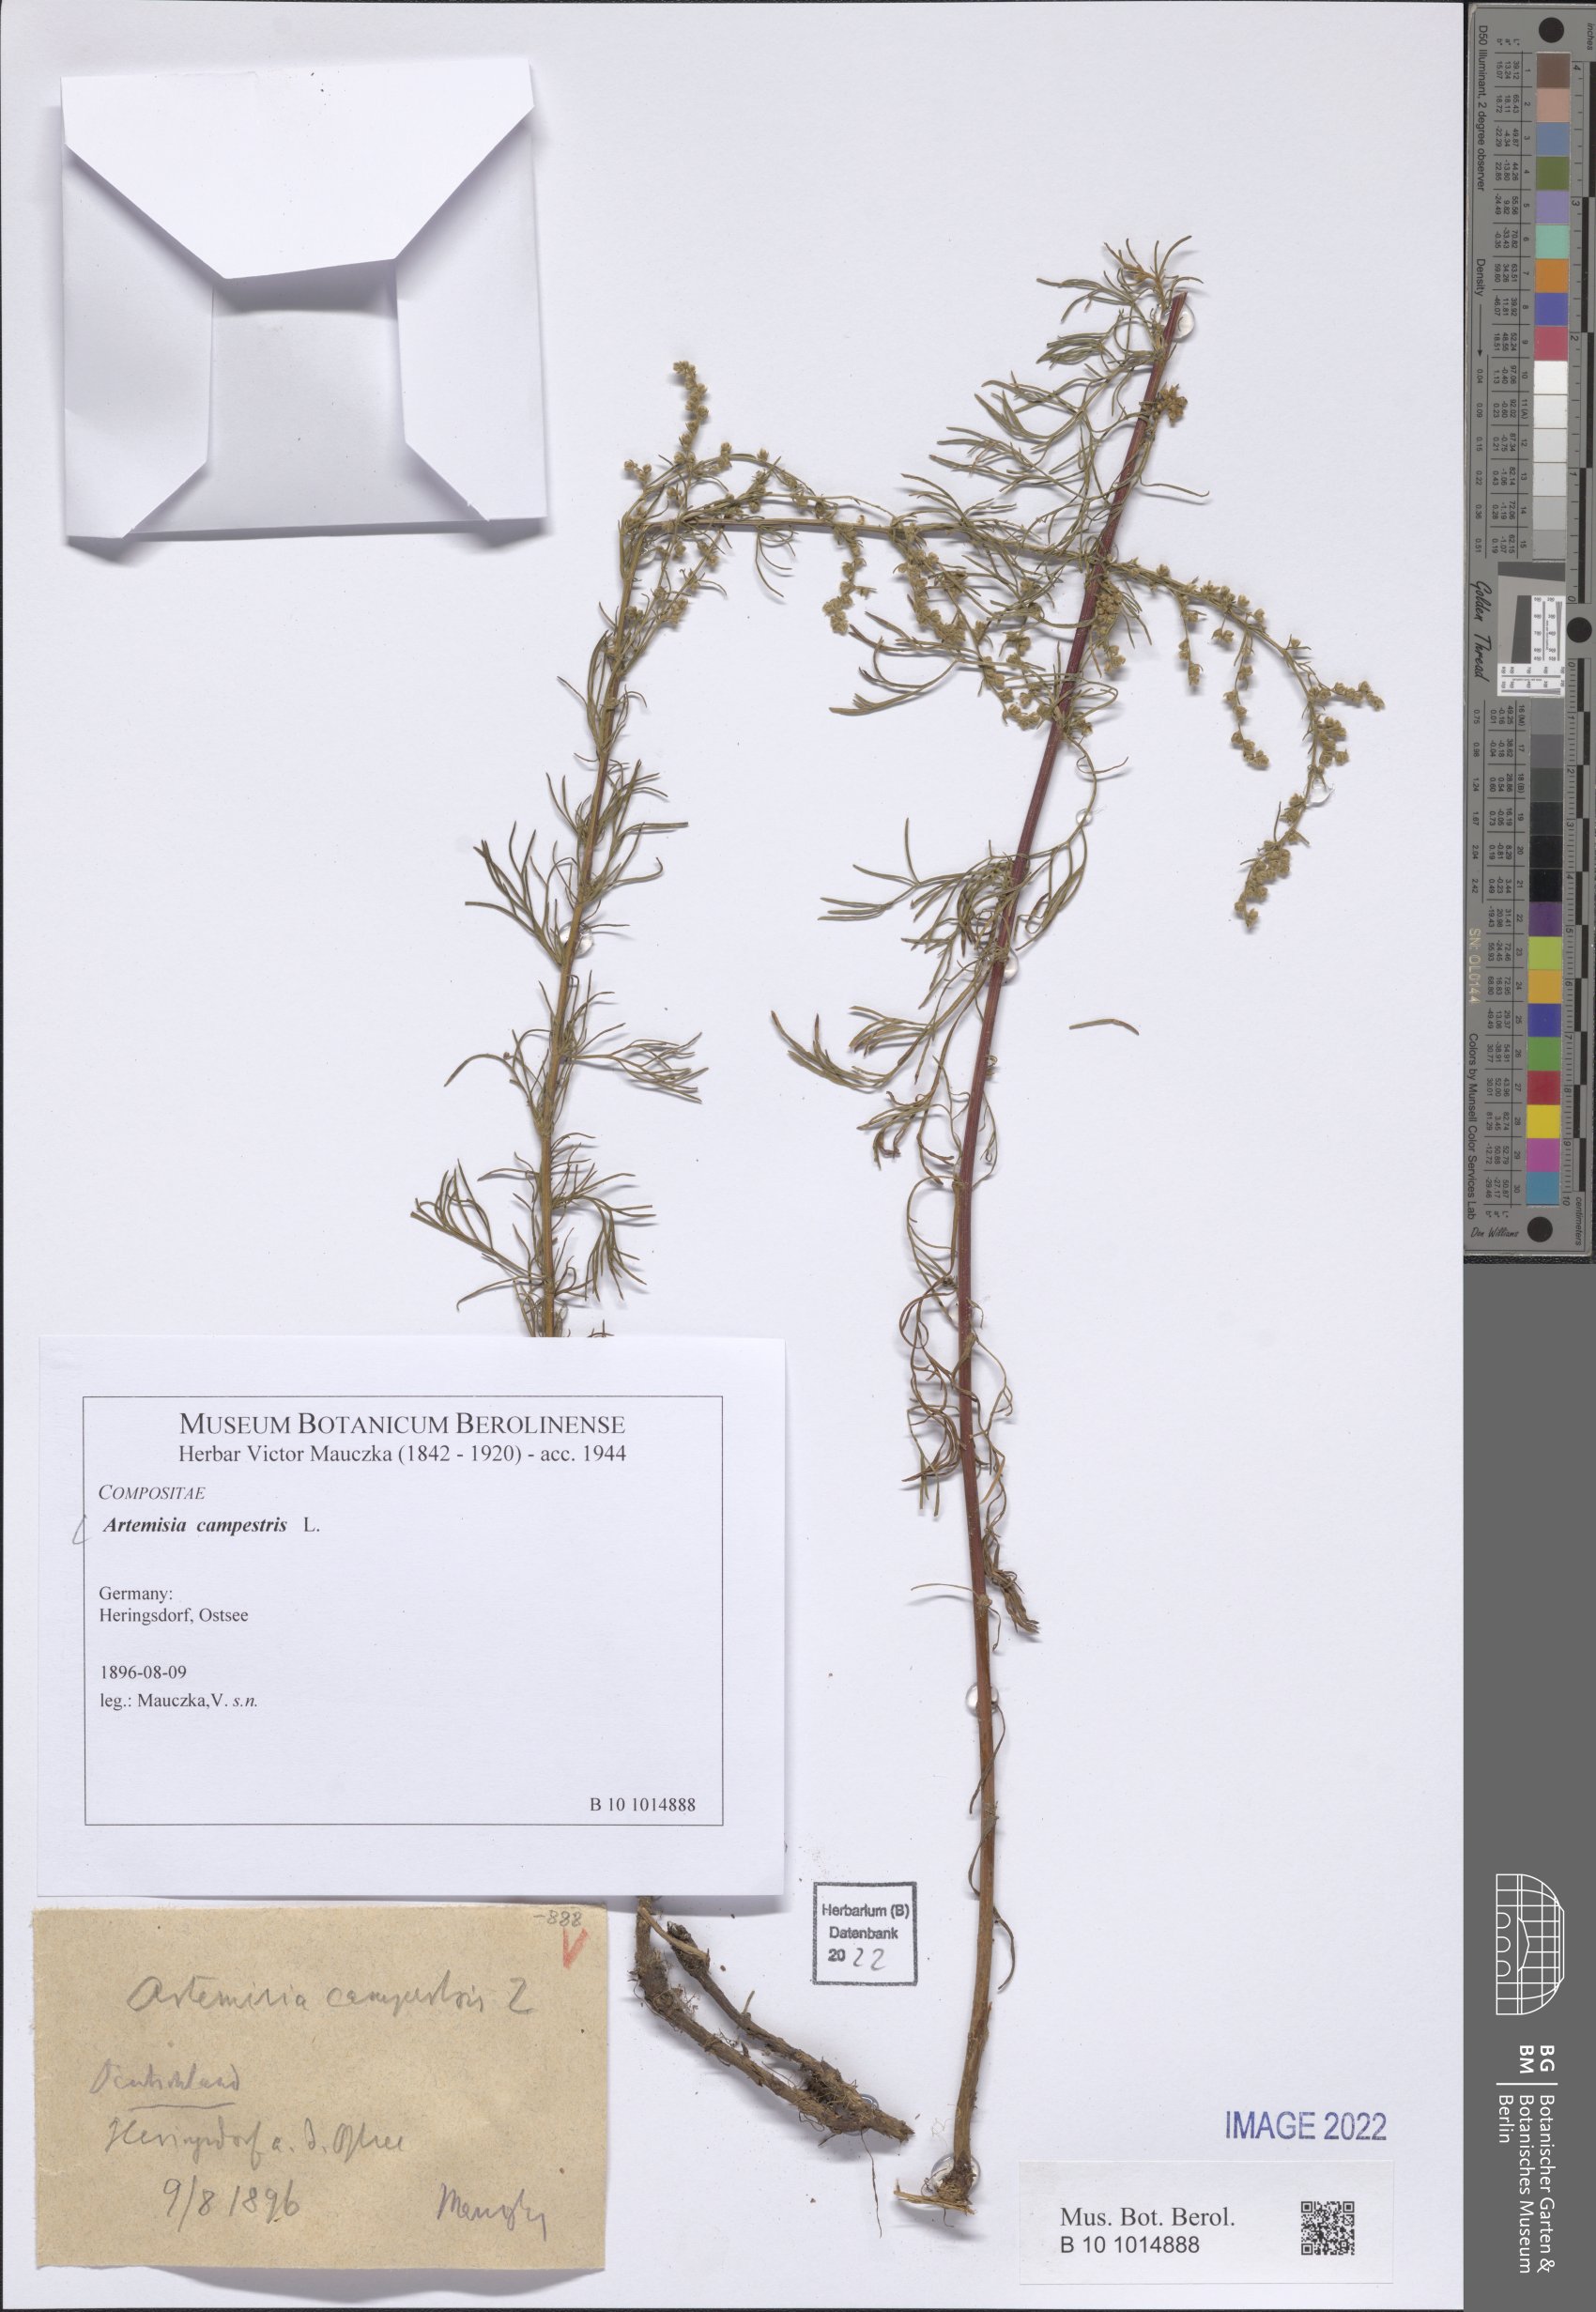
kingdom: Plantae
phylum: Tracheophyta
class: Magnoliopsida
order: Asterales
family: Asteraceae
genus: Artemisia
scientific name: Artemisia campestris
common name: Field wormwood
